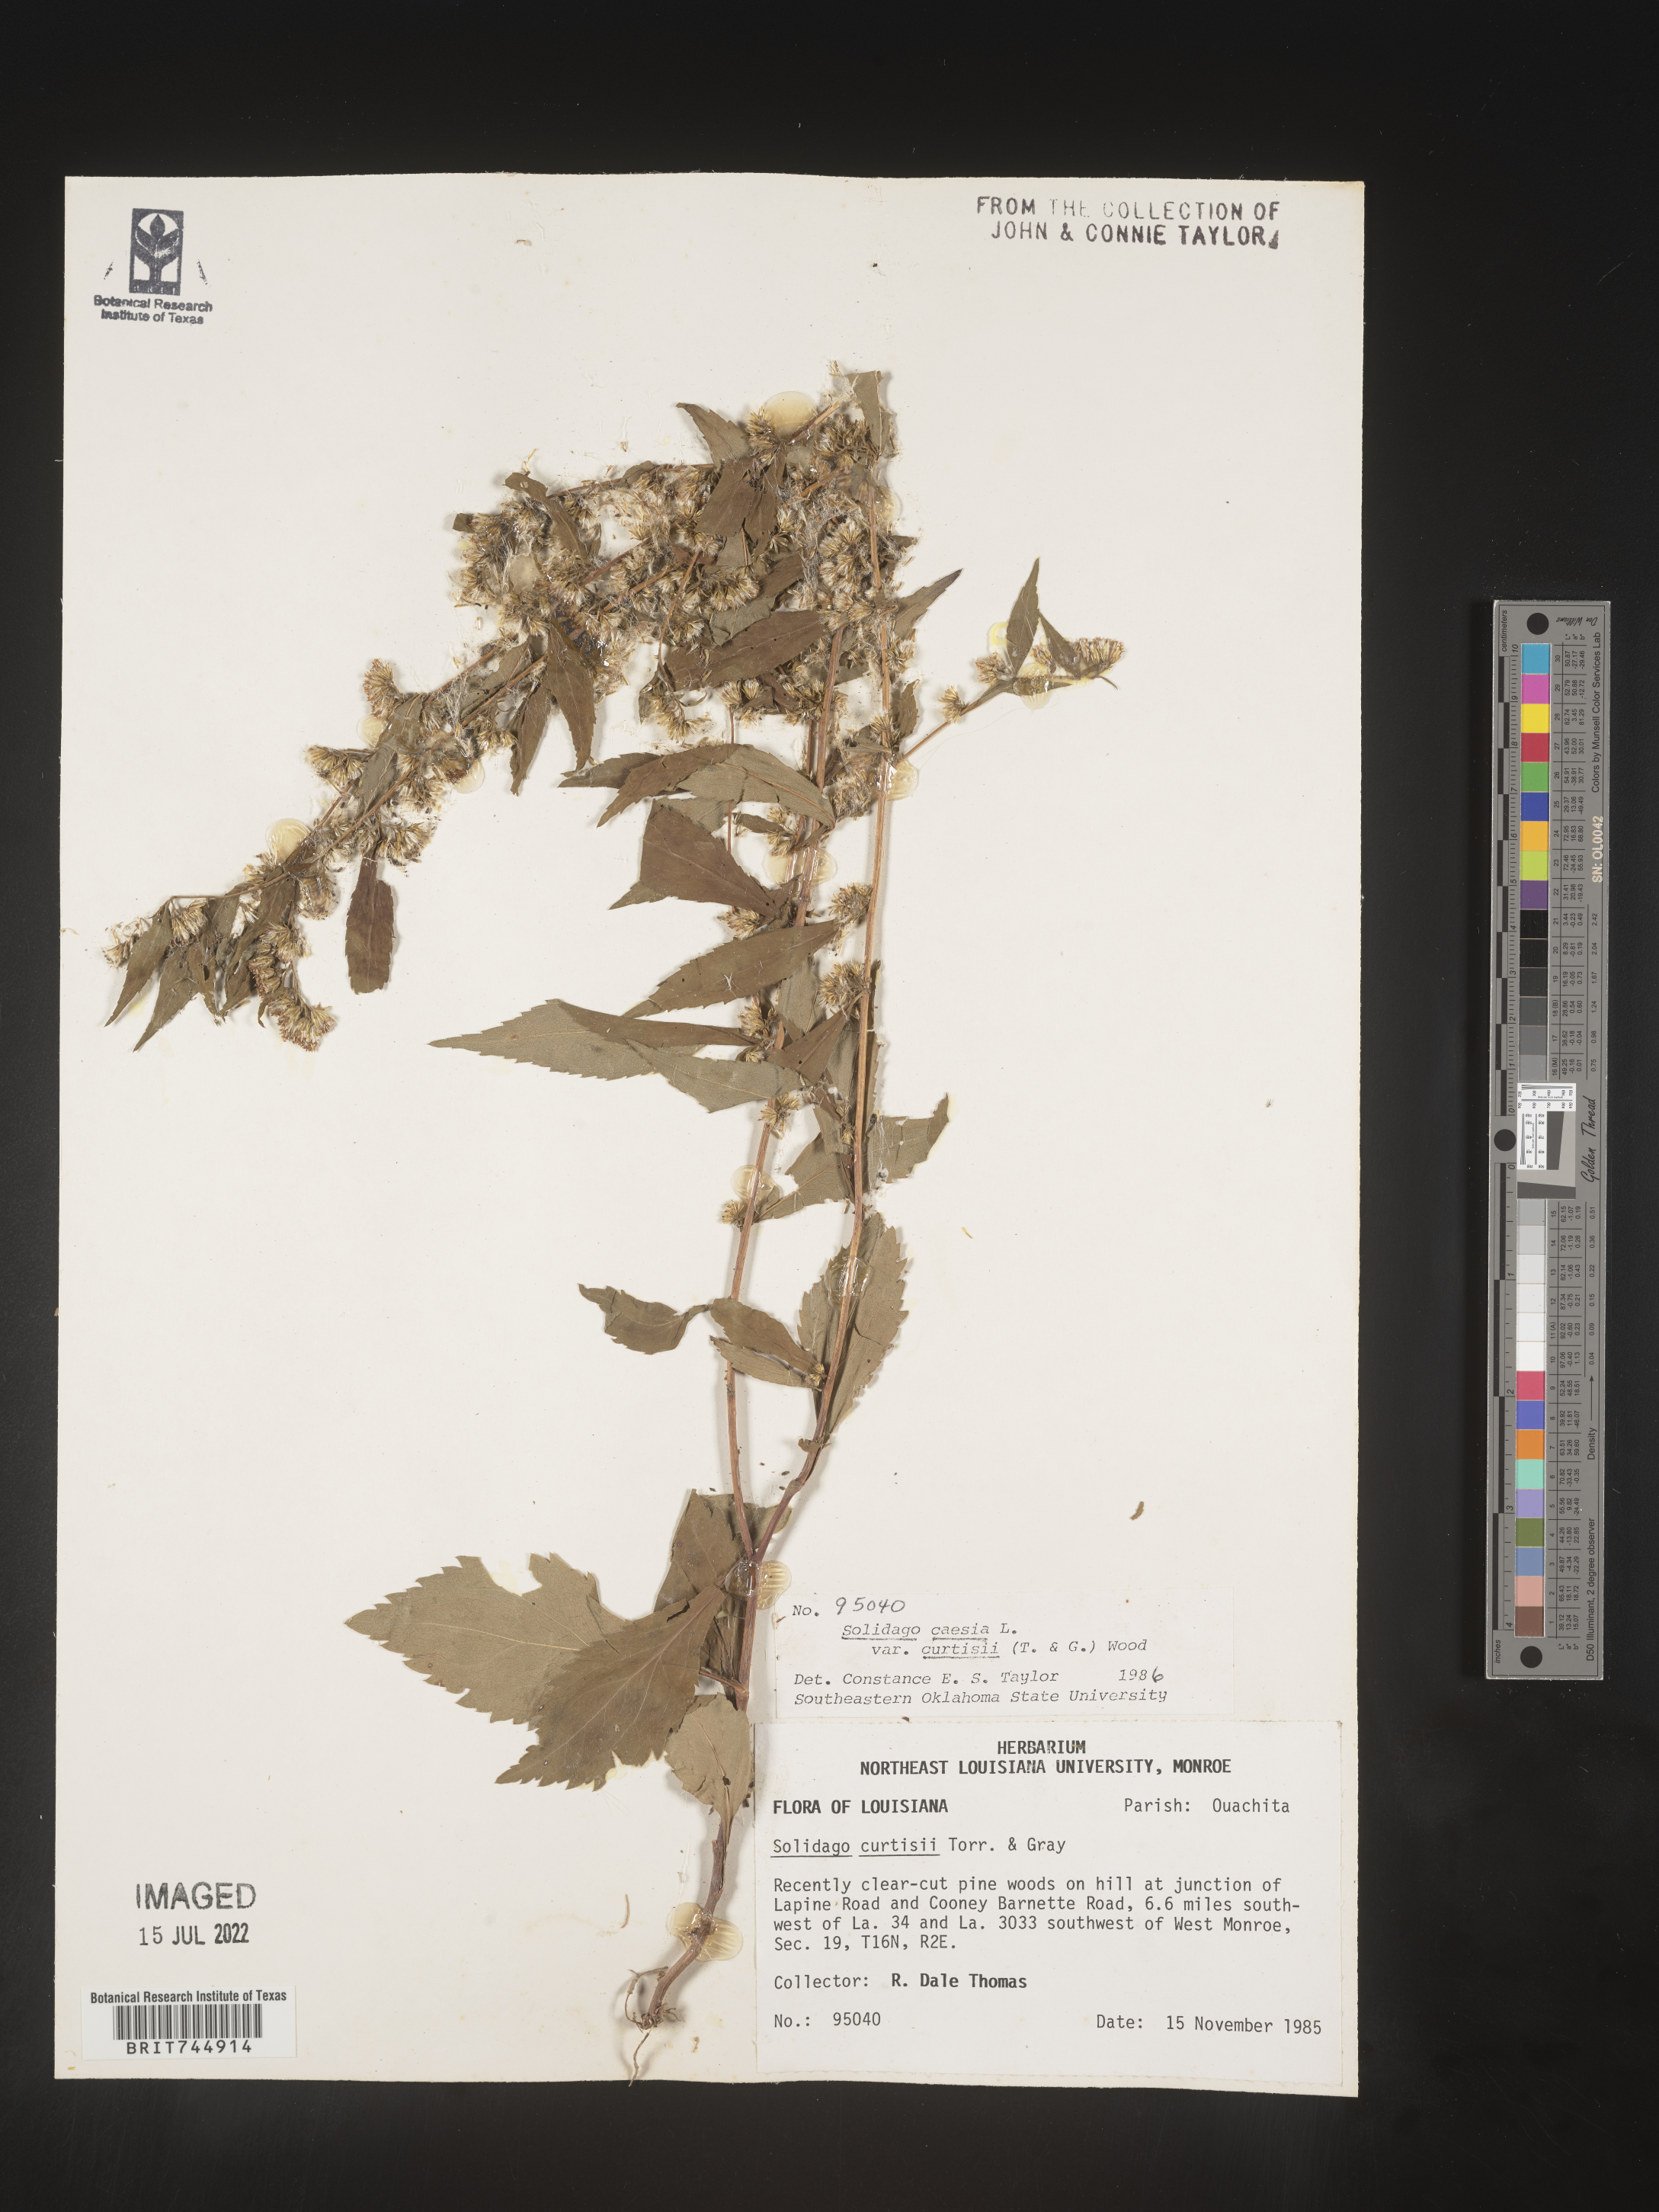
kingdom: Plantae
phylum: Tracheophyta
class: Magnoliopsida
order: Asterales
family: Asteraceae
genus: Solidago
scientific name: Solidago curtisii
